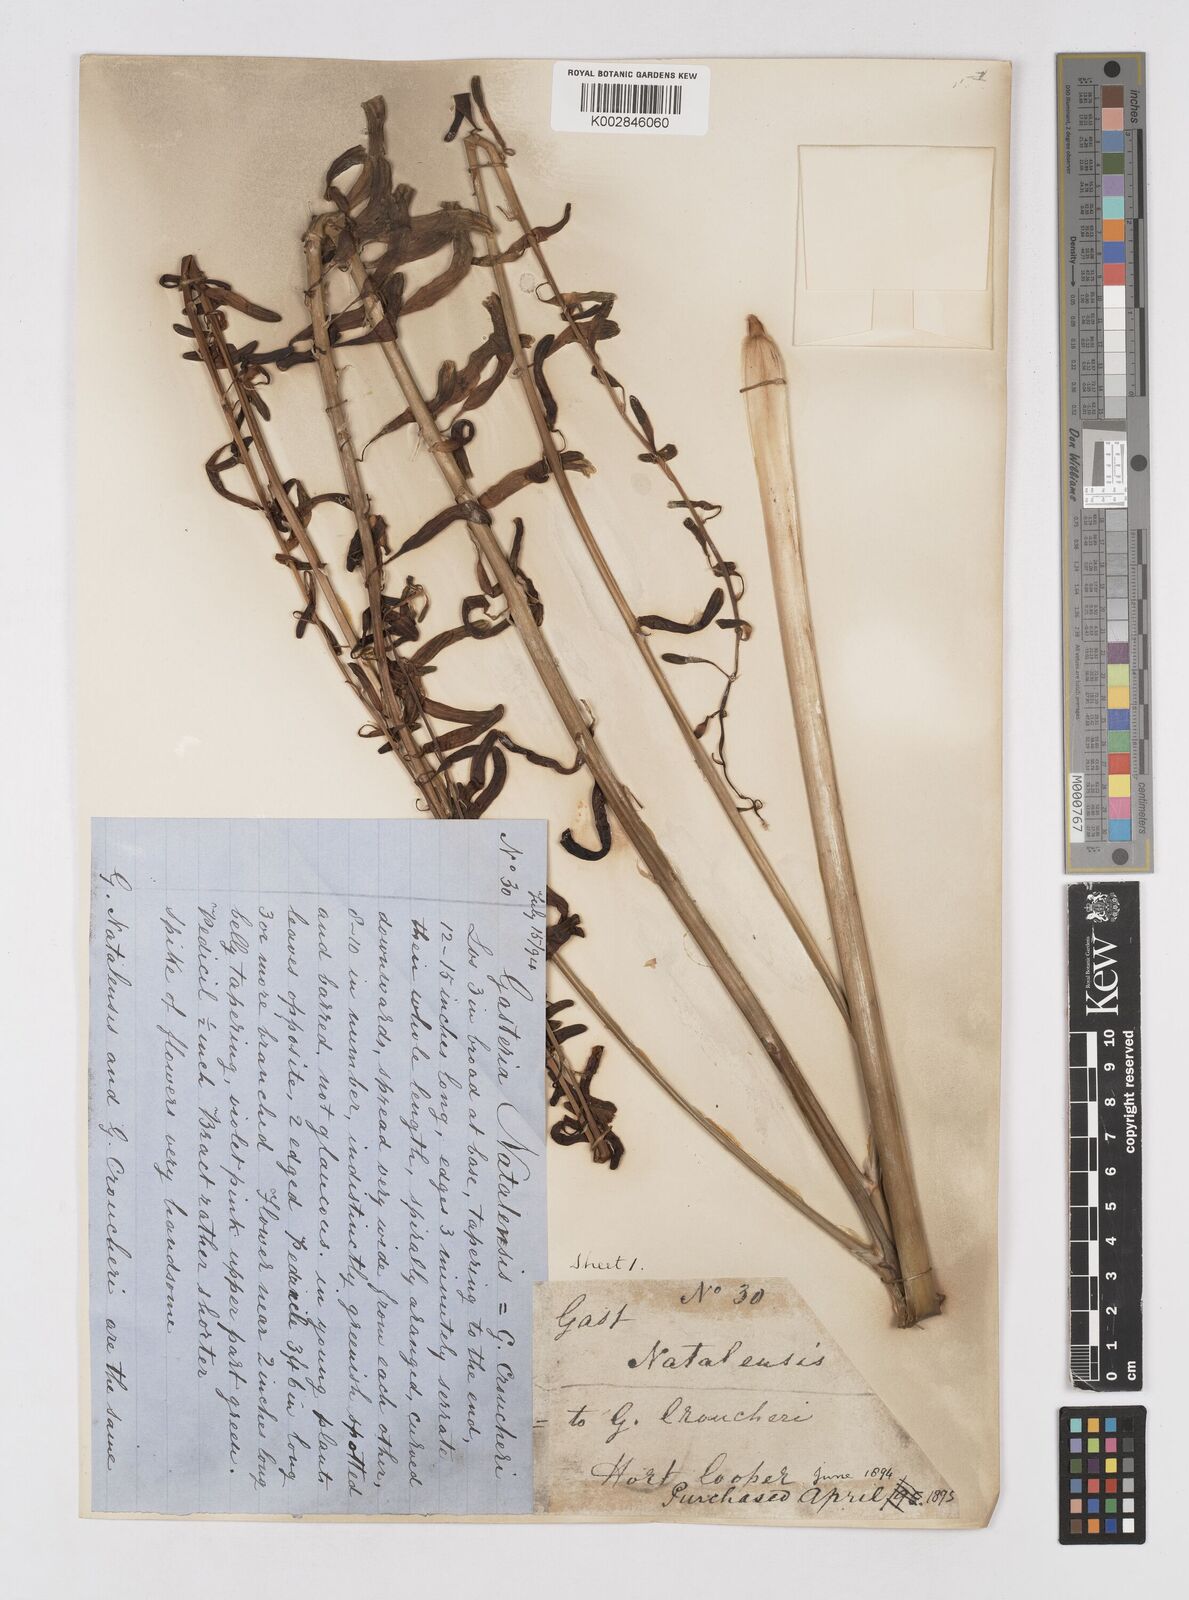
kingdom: Plantae
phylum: Tracheophyta
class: Liliopsida
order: Asparagales
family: Asphodelaceae
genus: Gasteria
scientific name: Gasteria croucheri
